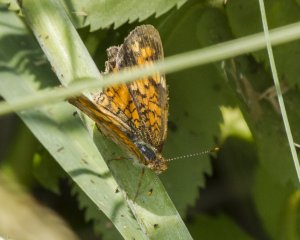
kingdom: Animalia
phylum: Arthropoda
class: Insecta
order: Lepidoptera
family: Nymphalidae
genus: Phyciodes
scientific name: Phyciodes tharos
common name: Northern Crescent
